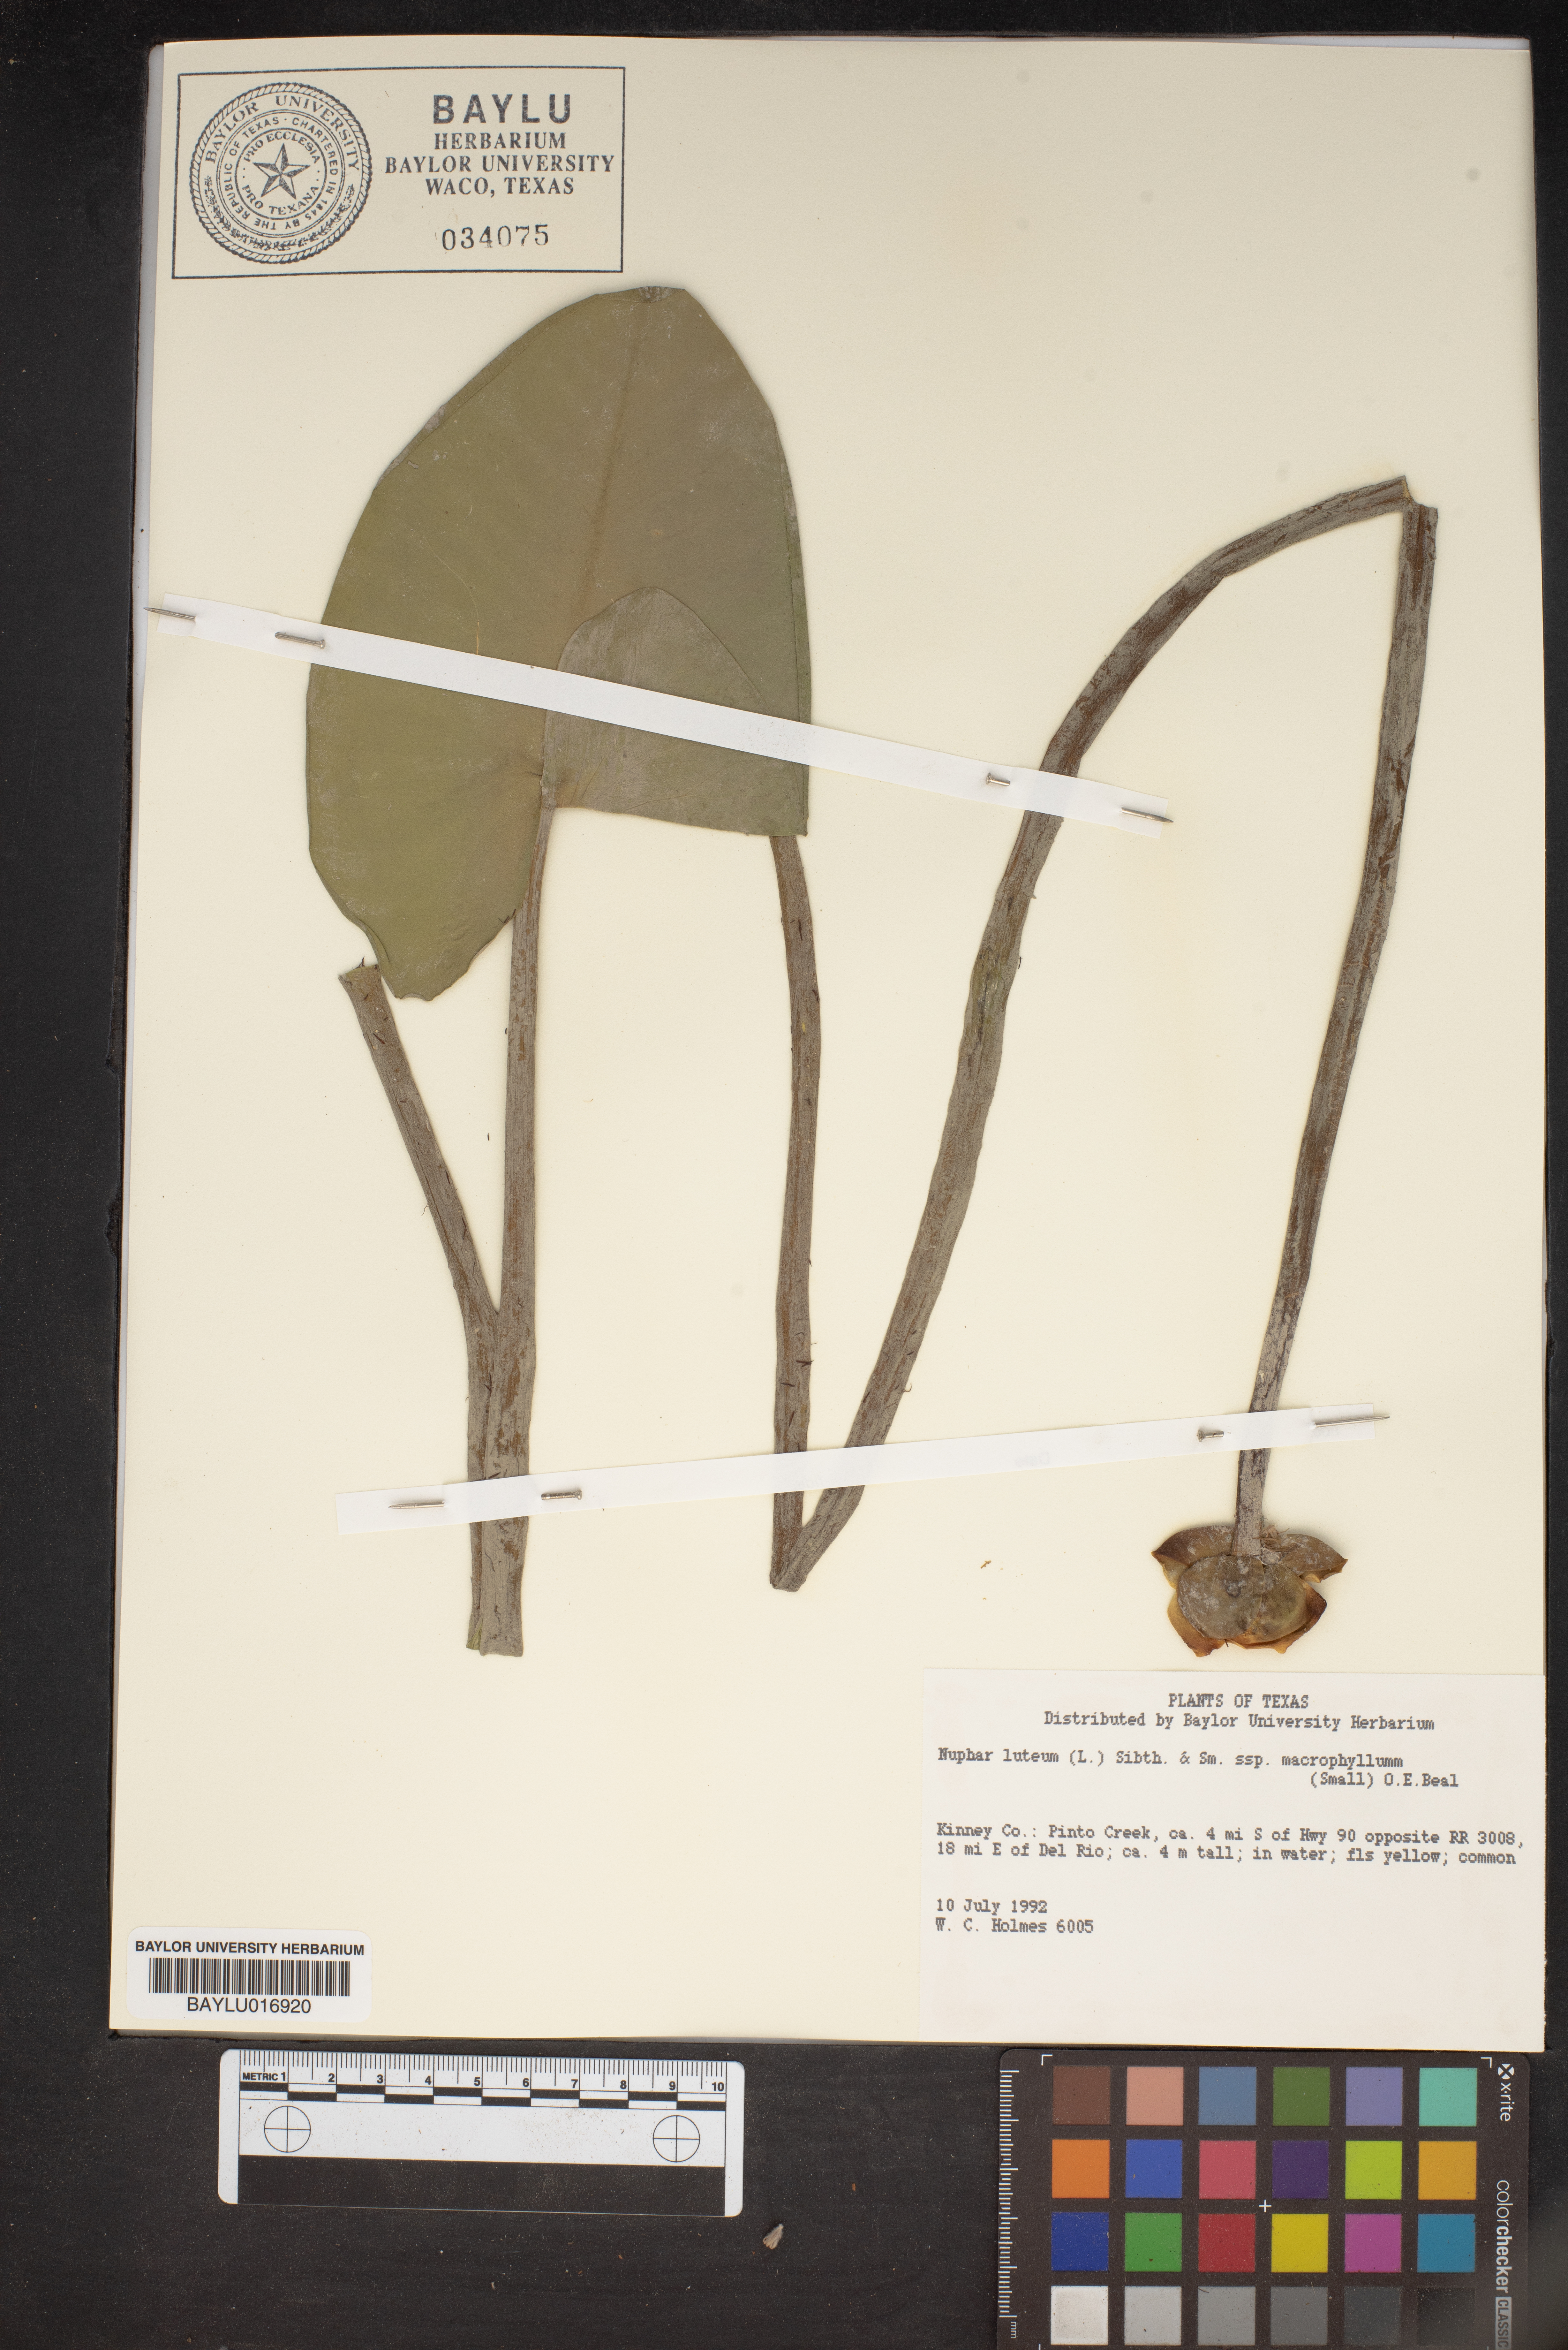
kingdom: Plantae
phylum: Tracheophyta
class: Magnoliopsida
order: Nymphaeales
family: Nymphaeaceae
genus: Nuphar
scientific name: Nuphar lutea
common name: Yellow water-lily
